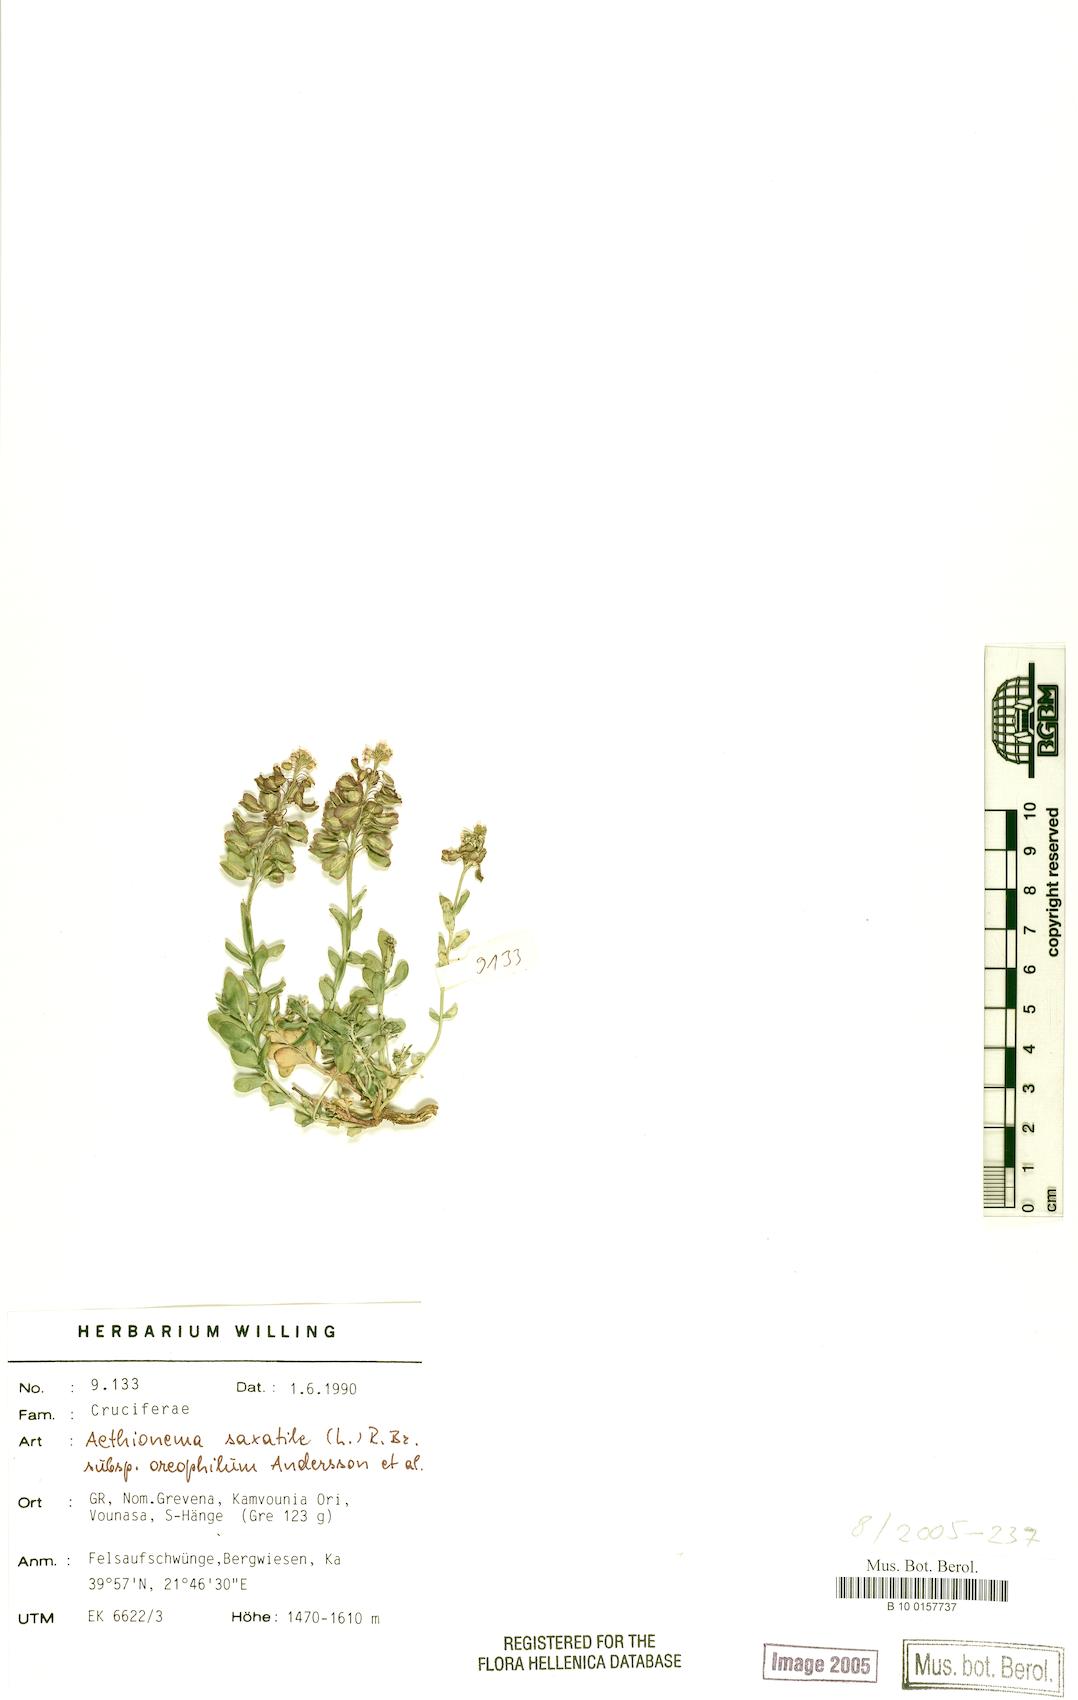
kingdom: Plantae
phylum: Tracheophyta
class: Magnoliopsida
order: Brassicales
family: Brassicaceae
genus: Aethionema
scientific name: Aethionema saxatile
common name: Burnt candytuft
